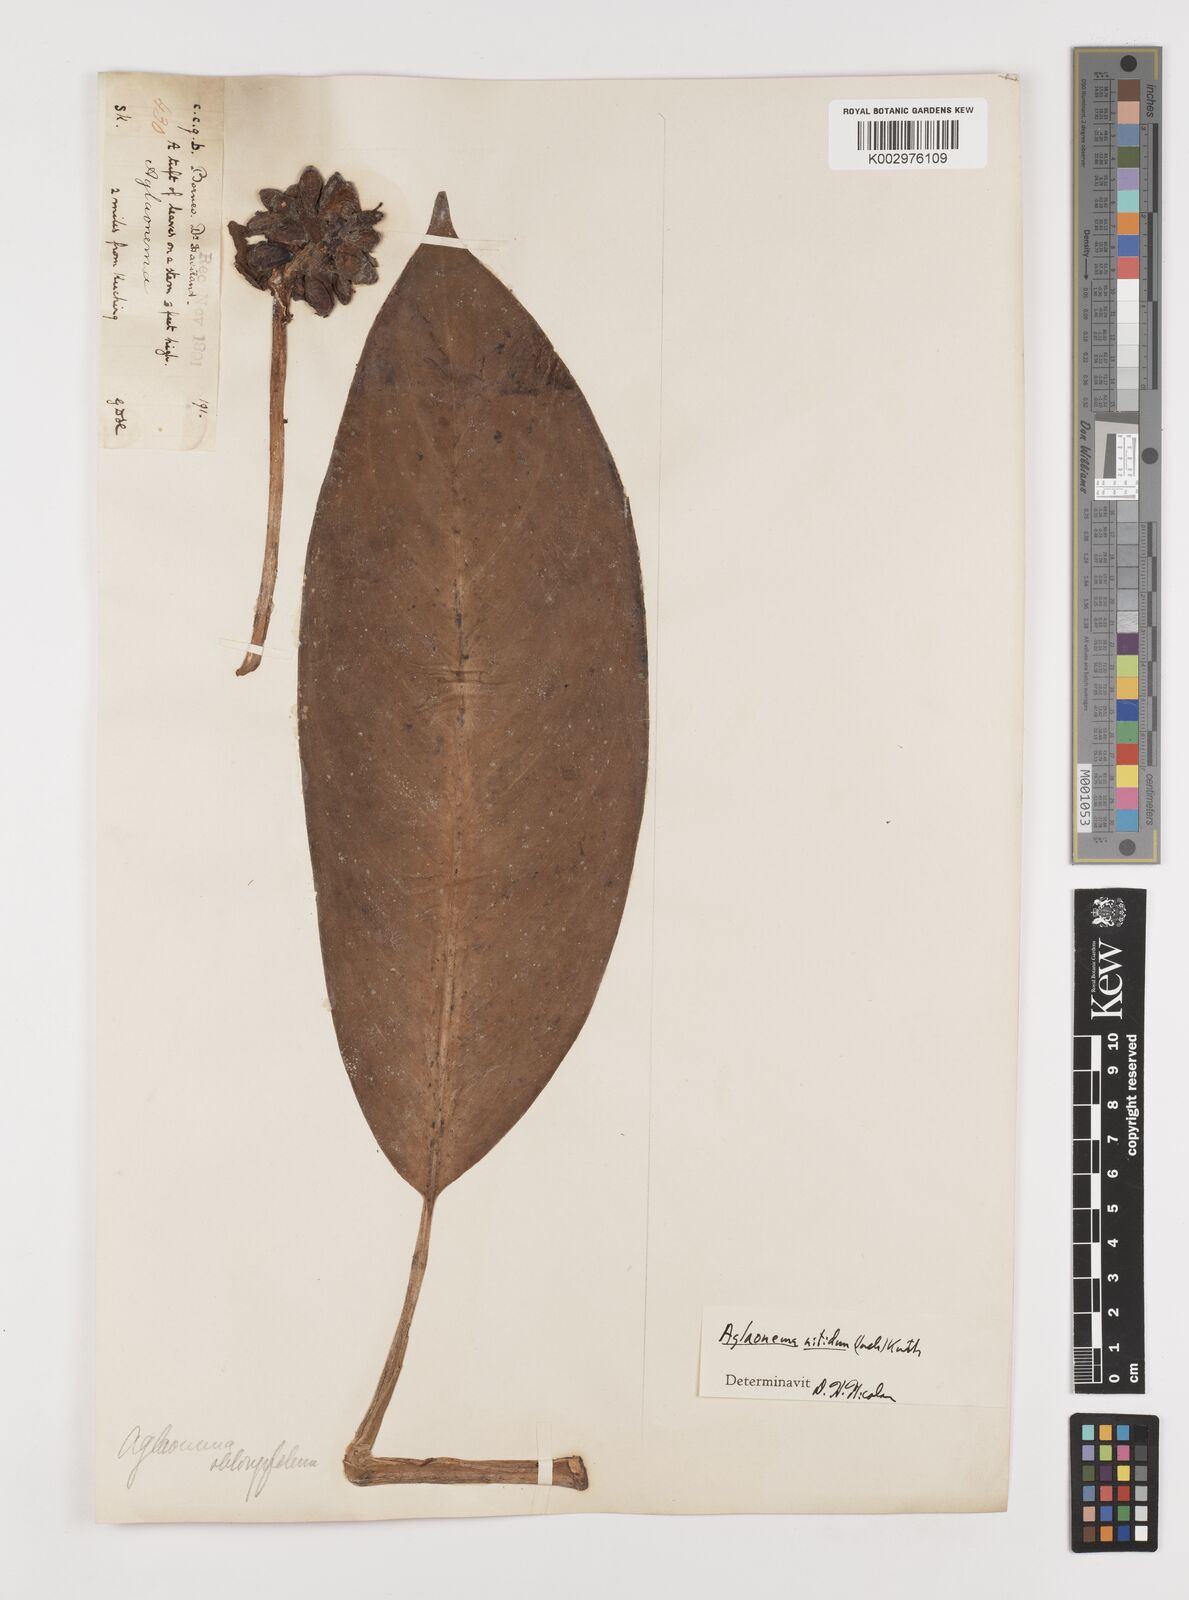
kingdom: Plantae
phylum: Tracheophyta
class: Liliopsida
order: Alismatales
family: Araceae
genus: Aglaonema
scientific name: Aglaonema nitidum
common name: Aglaonema aroid
